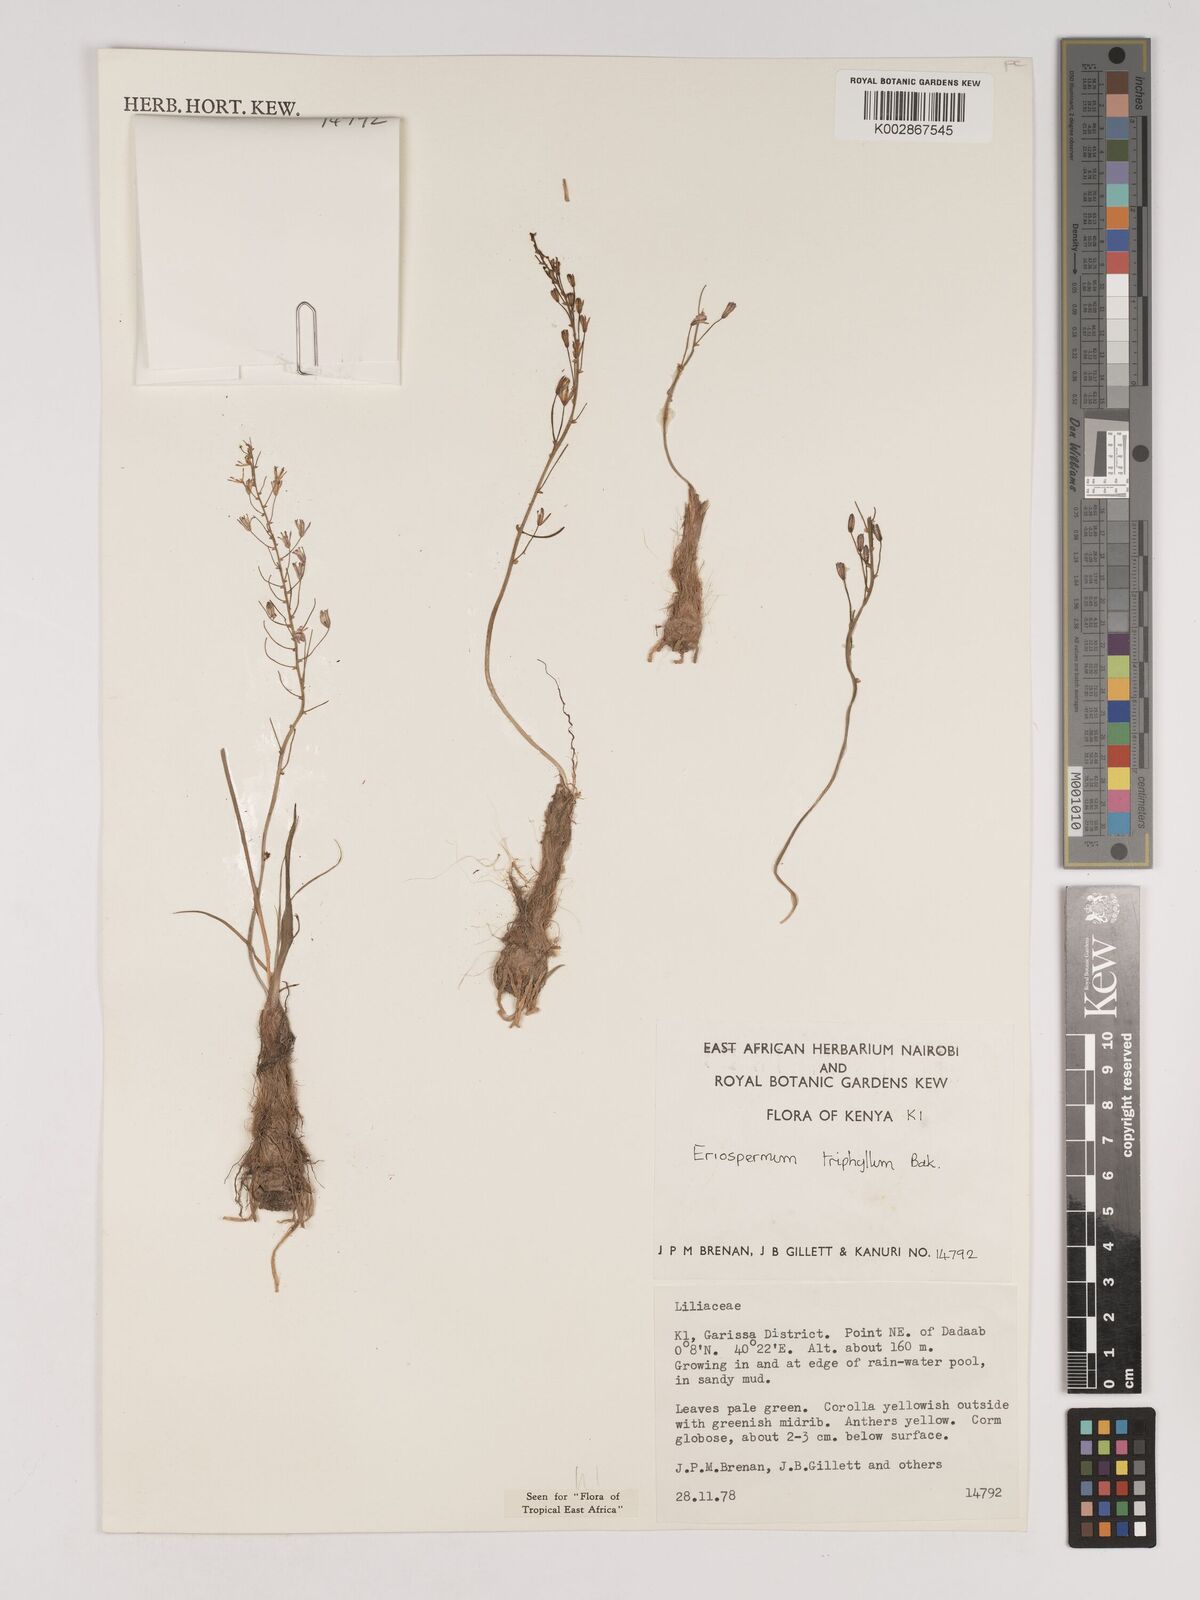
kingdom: Plantae
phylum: Tracheophyta
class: Liliopsida
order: Asparagales
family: Asparagaceae
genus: Eriospermum
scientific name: Eriospermum triphyllum
